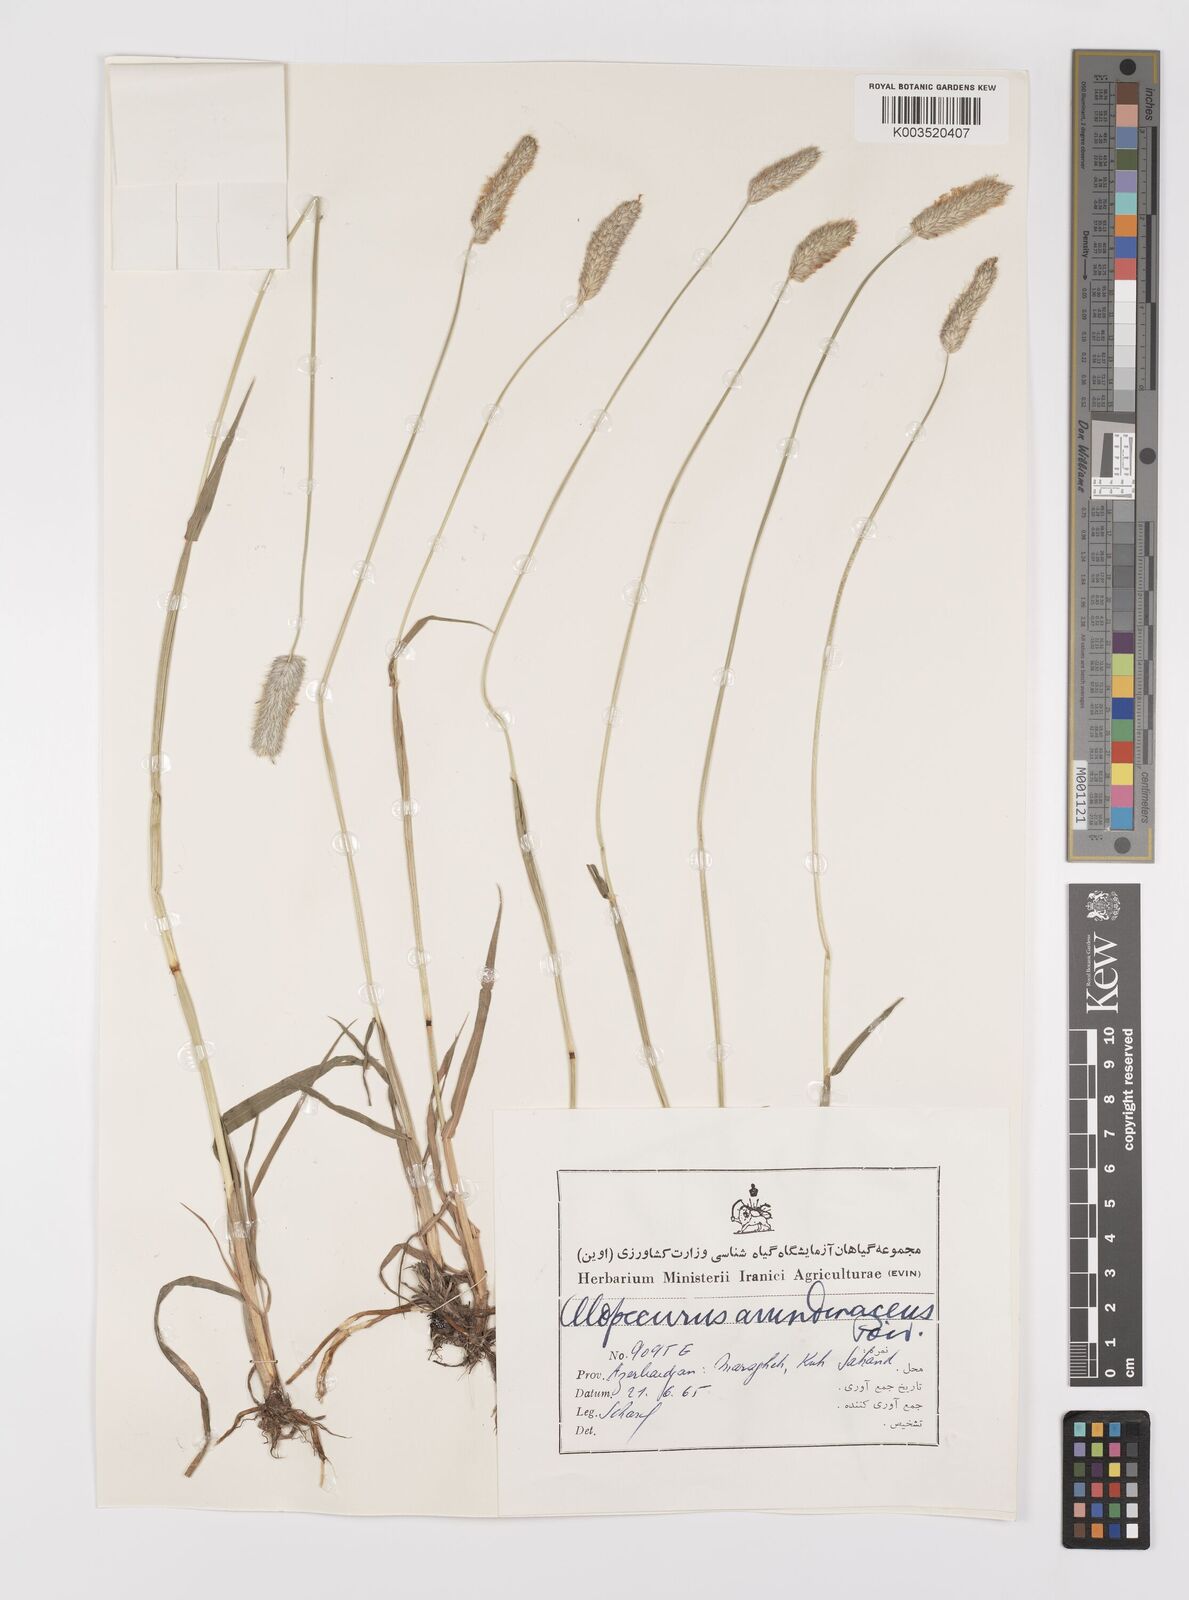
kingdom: Plantae
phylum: Tracheophyta
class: Liliopsida
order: Poales
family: Poaceae
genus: Alopecurus
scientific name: Alopecurus arundinaceus
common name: Creeping meadow foxtail
